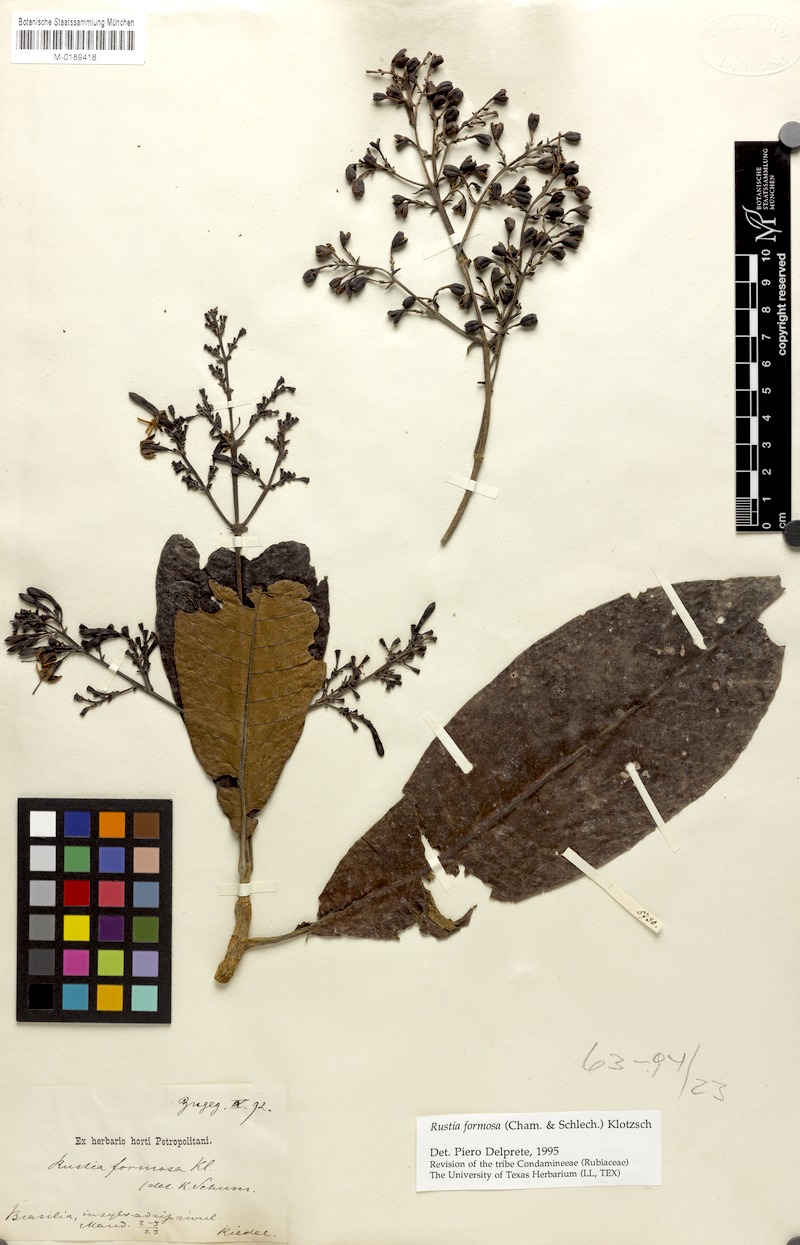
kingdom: Plantae
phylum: Tracheophyta
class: Magnoliopsida
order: Gentianales
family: Rubiaceae
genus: Rustia
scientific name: Rustia formosa
